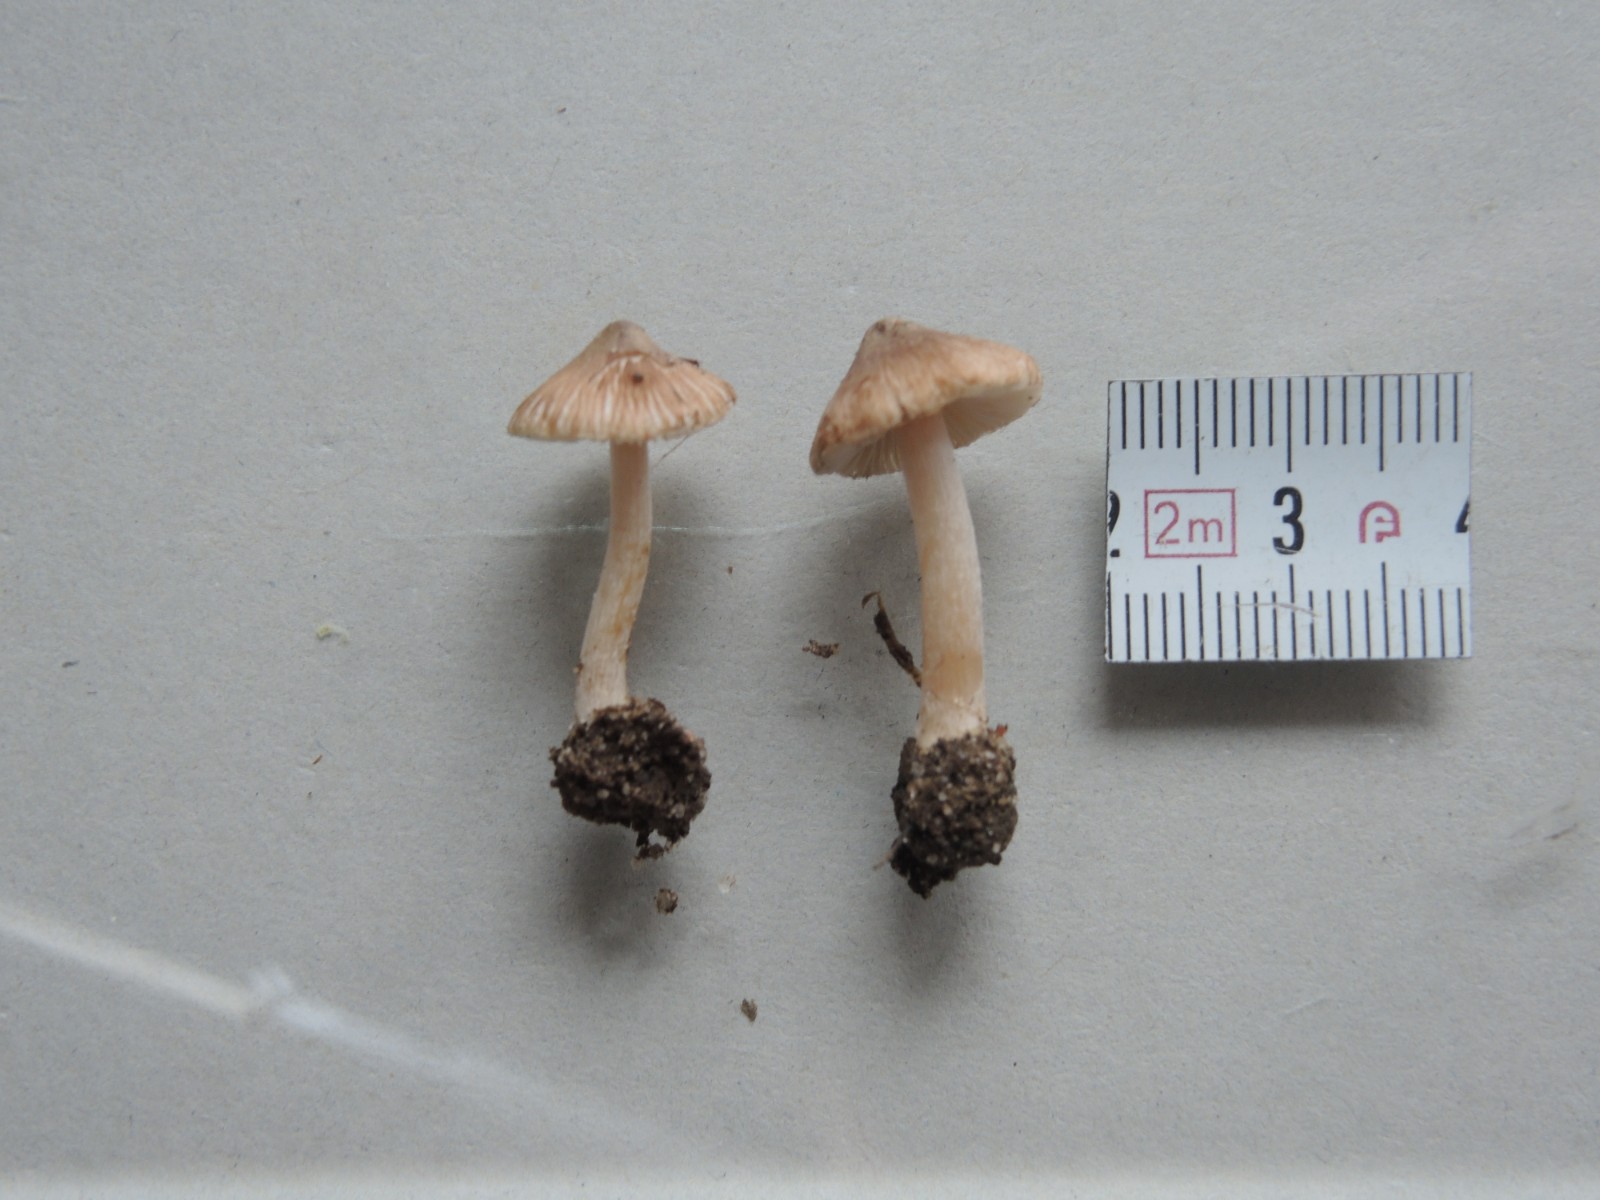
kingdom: Fungi
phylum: Basidiomycota
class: Agaricomycetes
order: Agaricales
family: Inocybaceae
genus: Inocybe
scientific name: Inocybe
